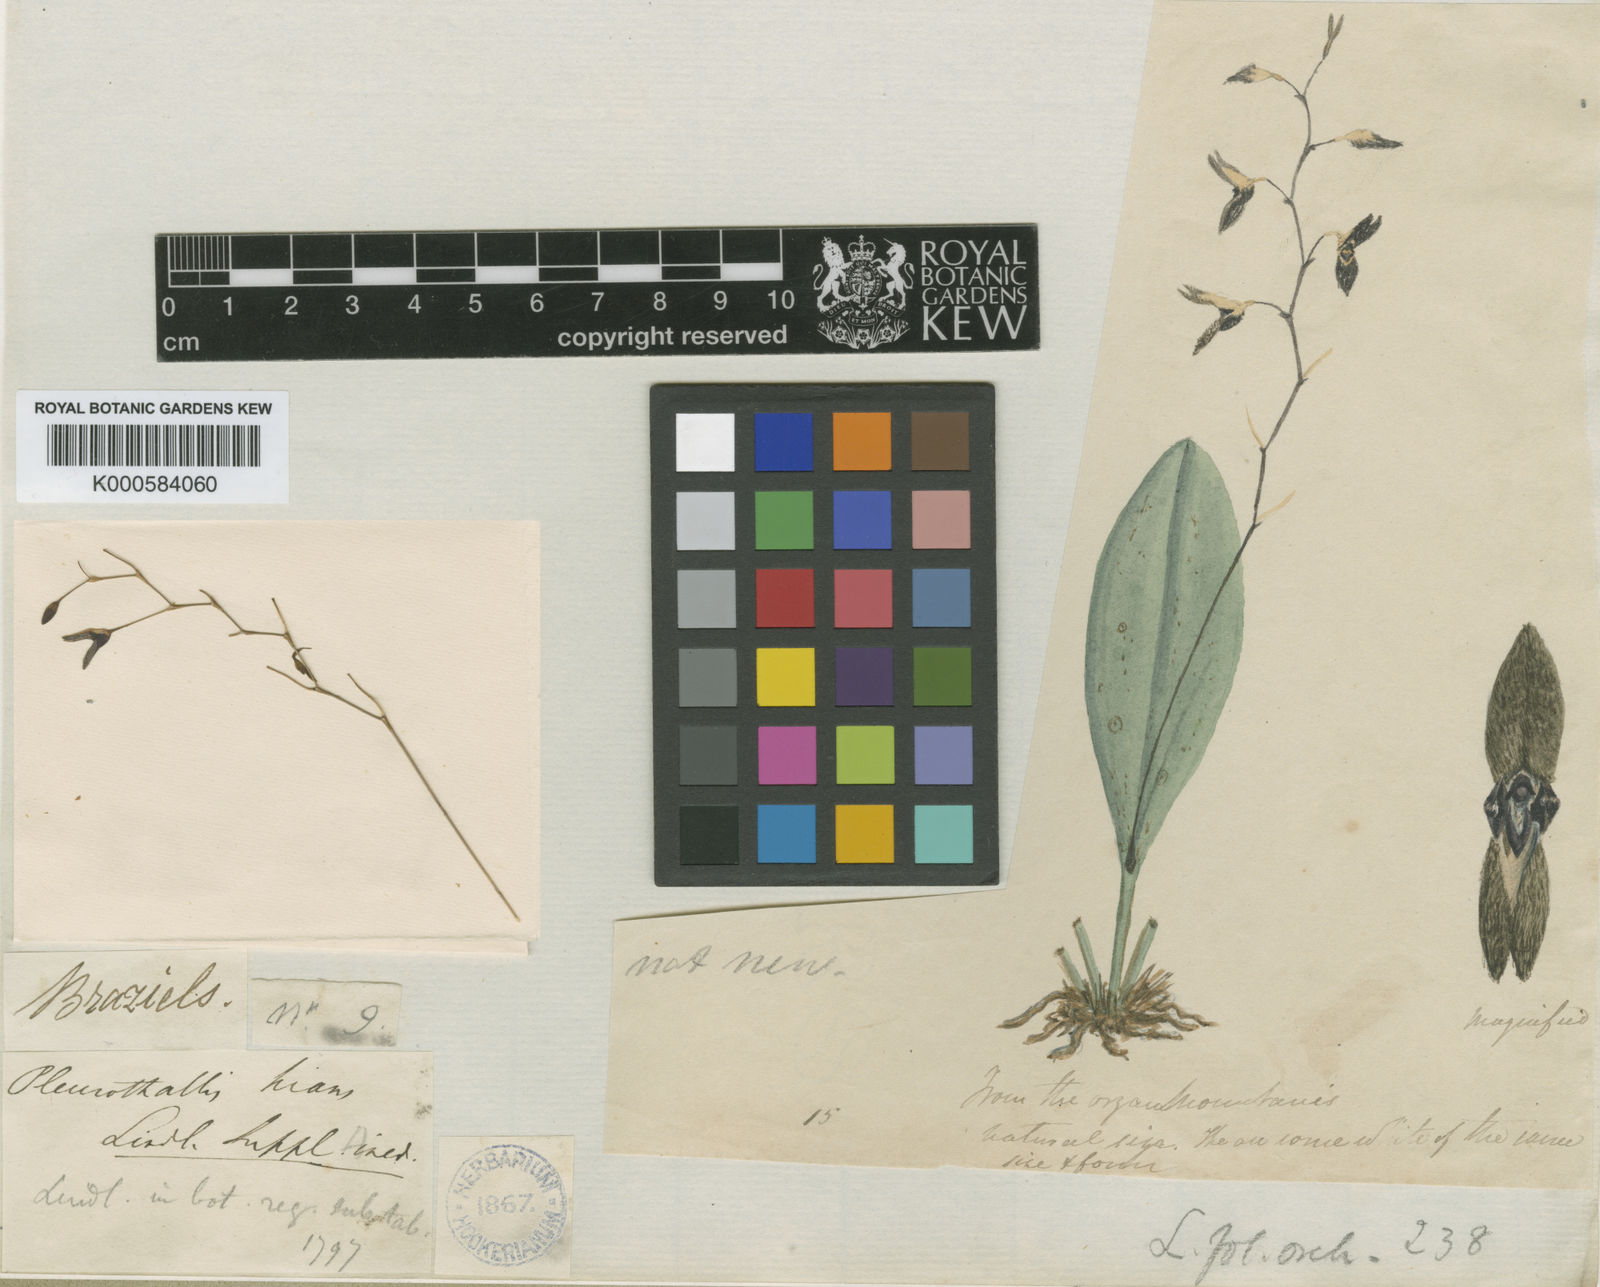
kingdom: Plantae
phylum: Tracheophyta
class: Liliopsida
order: Asparagales
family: Orchidaceae
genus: Stelis
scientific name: Stelis gunningiana
